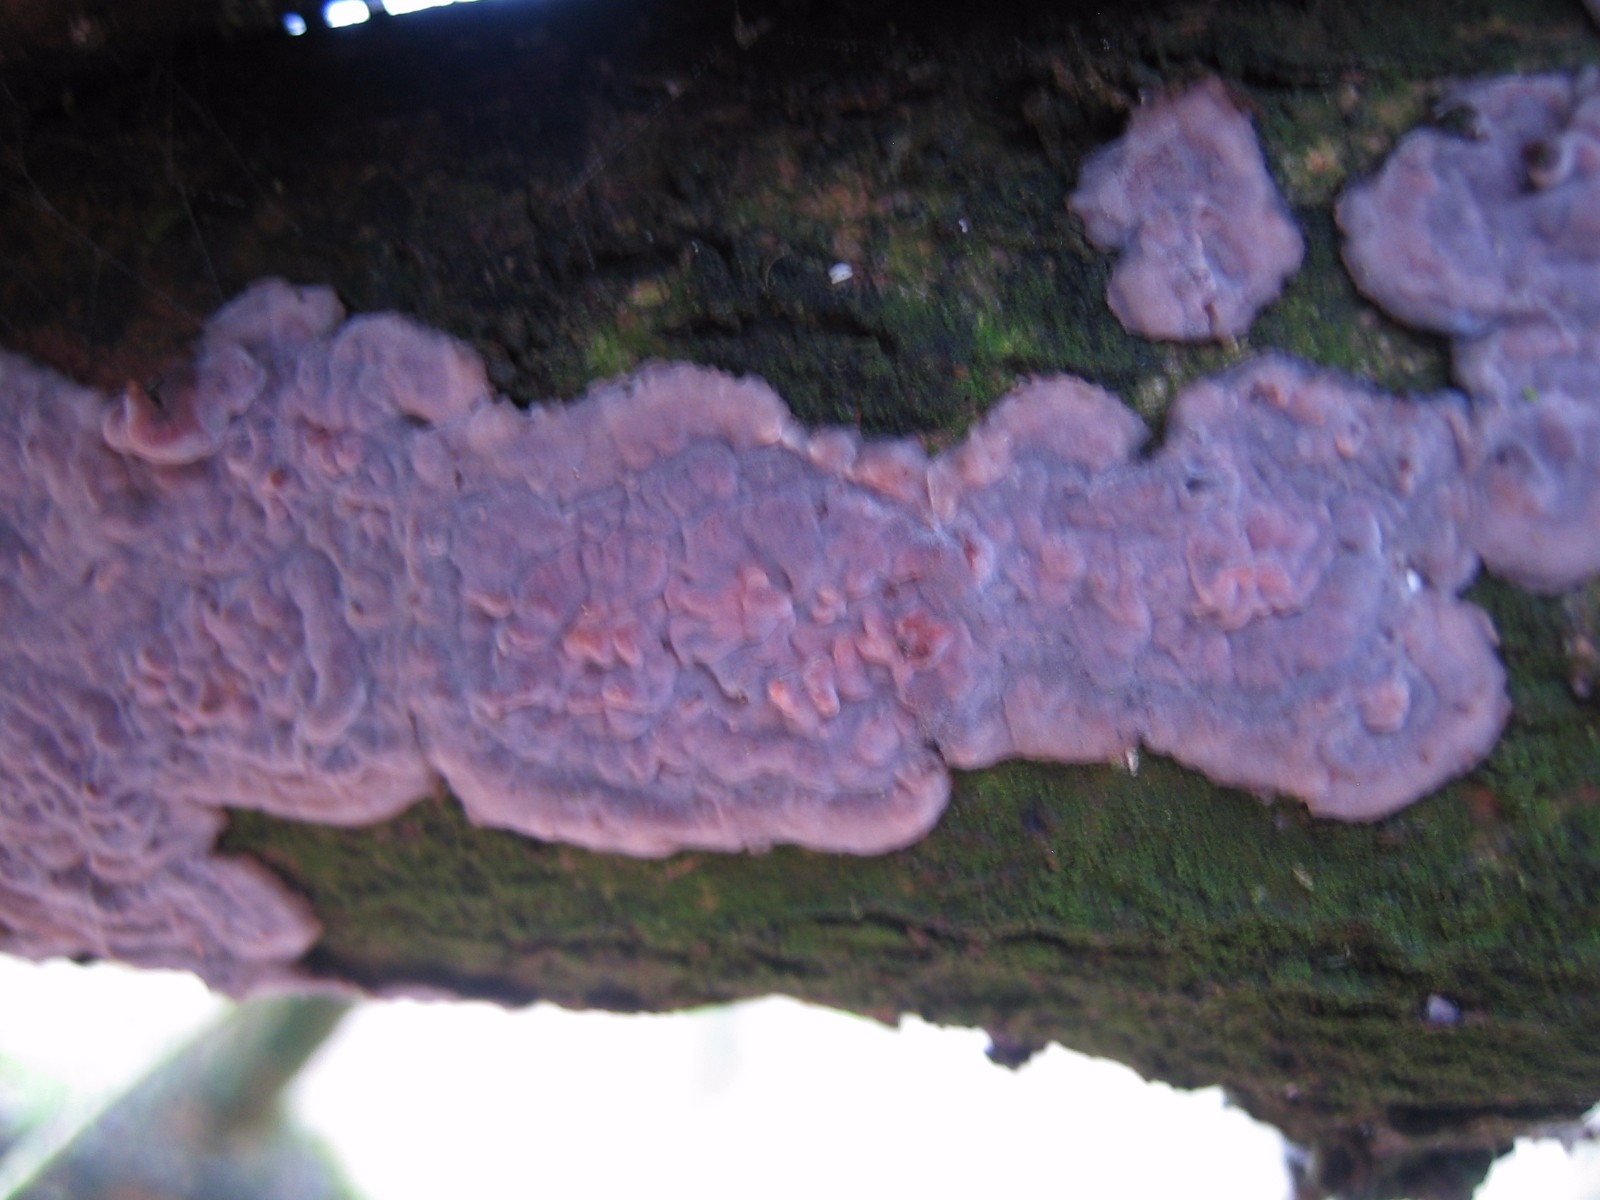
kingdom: Fungi
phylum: Basidiomycota
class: Agaricomycetes
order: Russulales
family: Peniophoraceae
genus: Peniophora
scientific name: Peniophora quercina
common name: ege-voksskind
